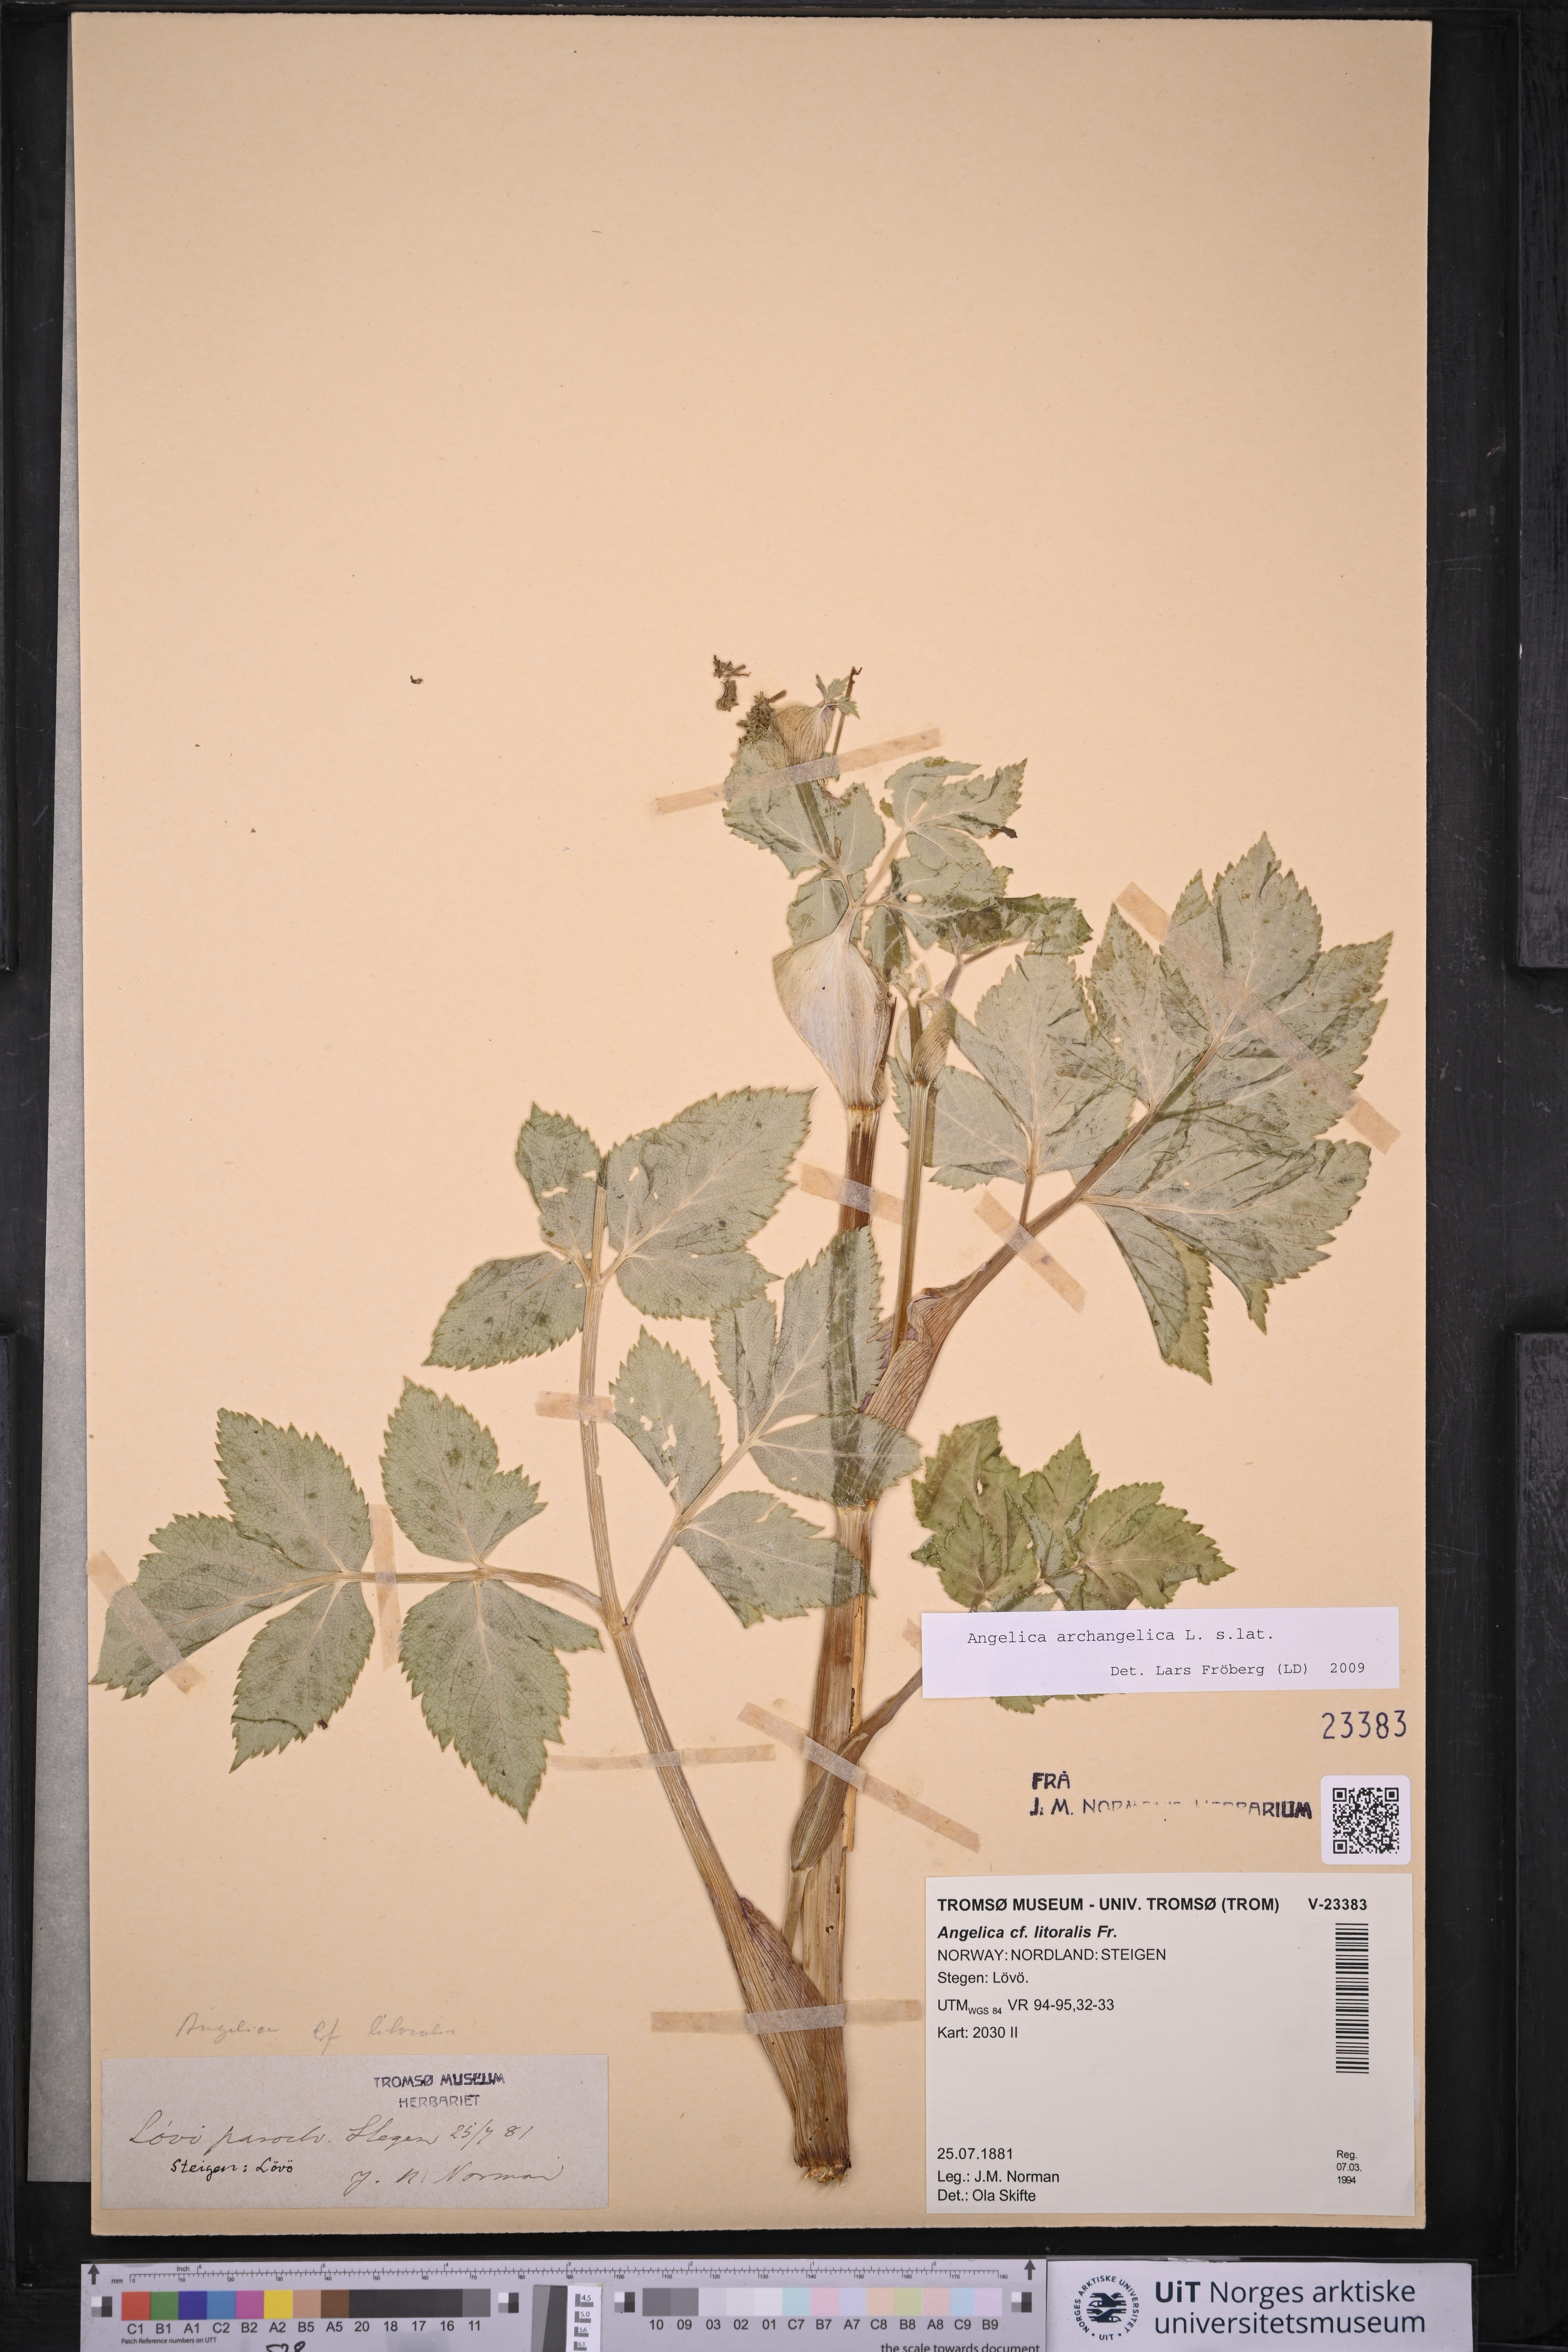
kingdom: Plantae
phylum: Tracheophyta
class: Magnoliopsida
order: Apiales
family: Apiaceae
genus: Angelica
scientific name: Angelica archangelica
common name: Garden angelica
